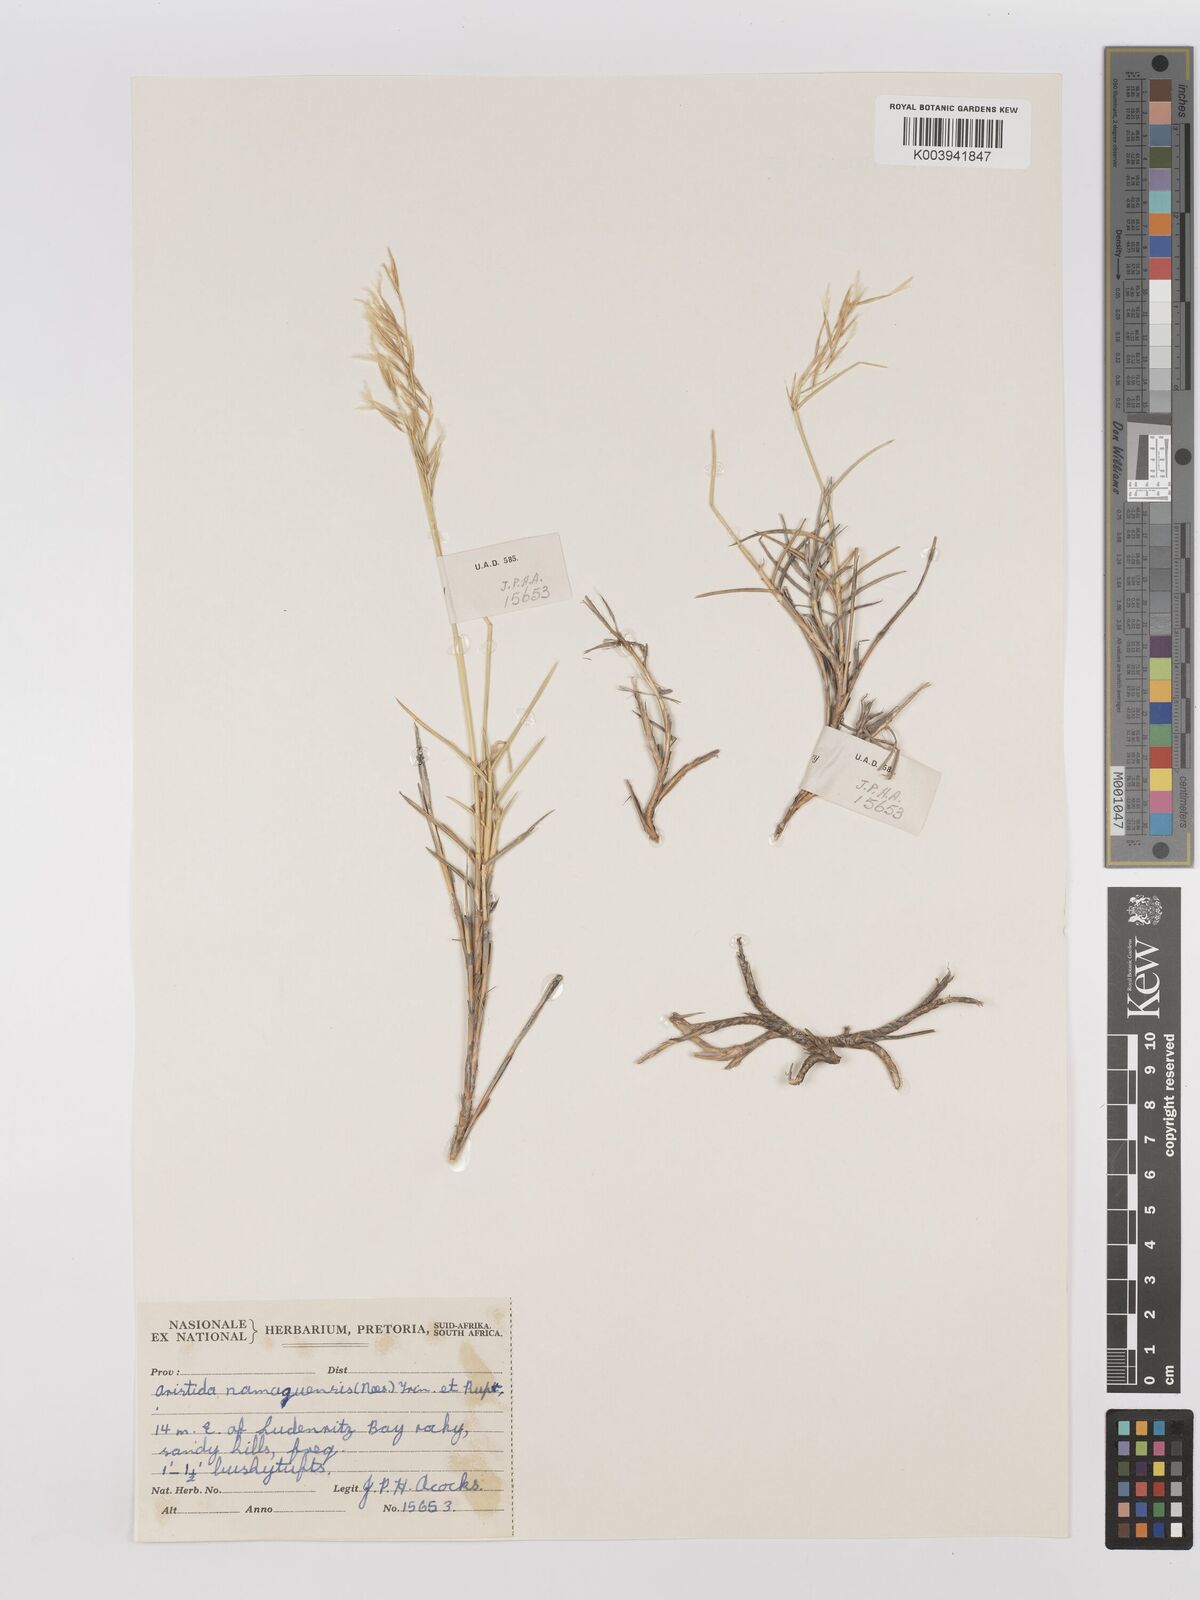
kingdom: Plantae
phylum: Tracheophyta
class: Liliopsida
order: Poales
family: Poaceae
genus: Stipagrostis
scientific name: Stipagrostis namaquensis
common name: River bushman grass
